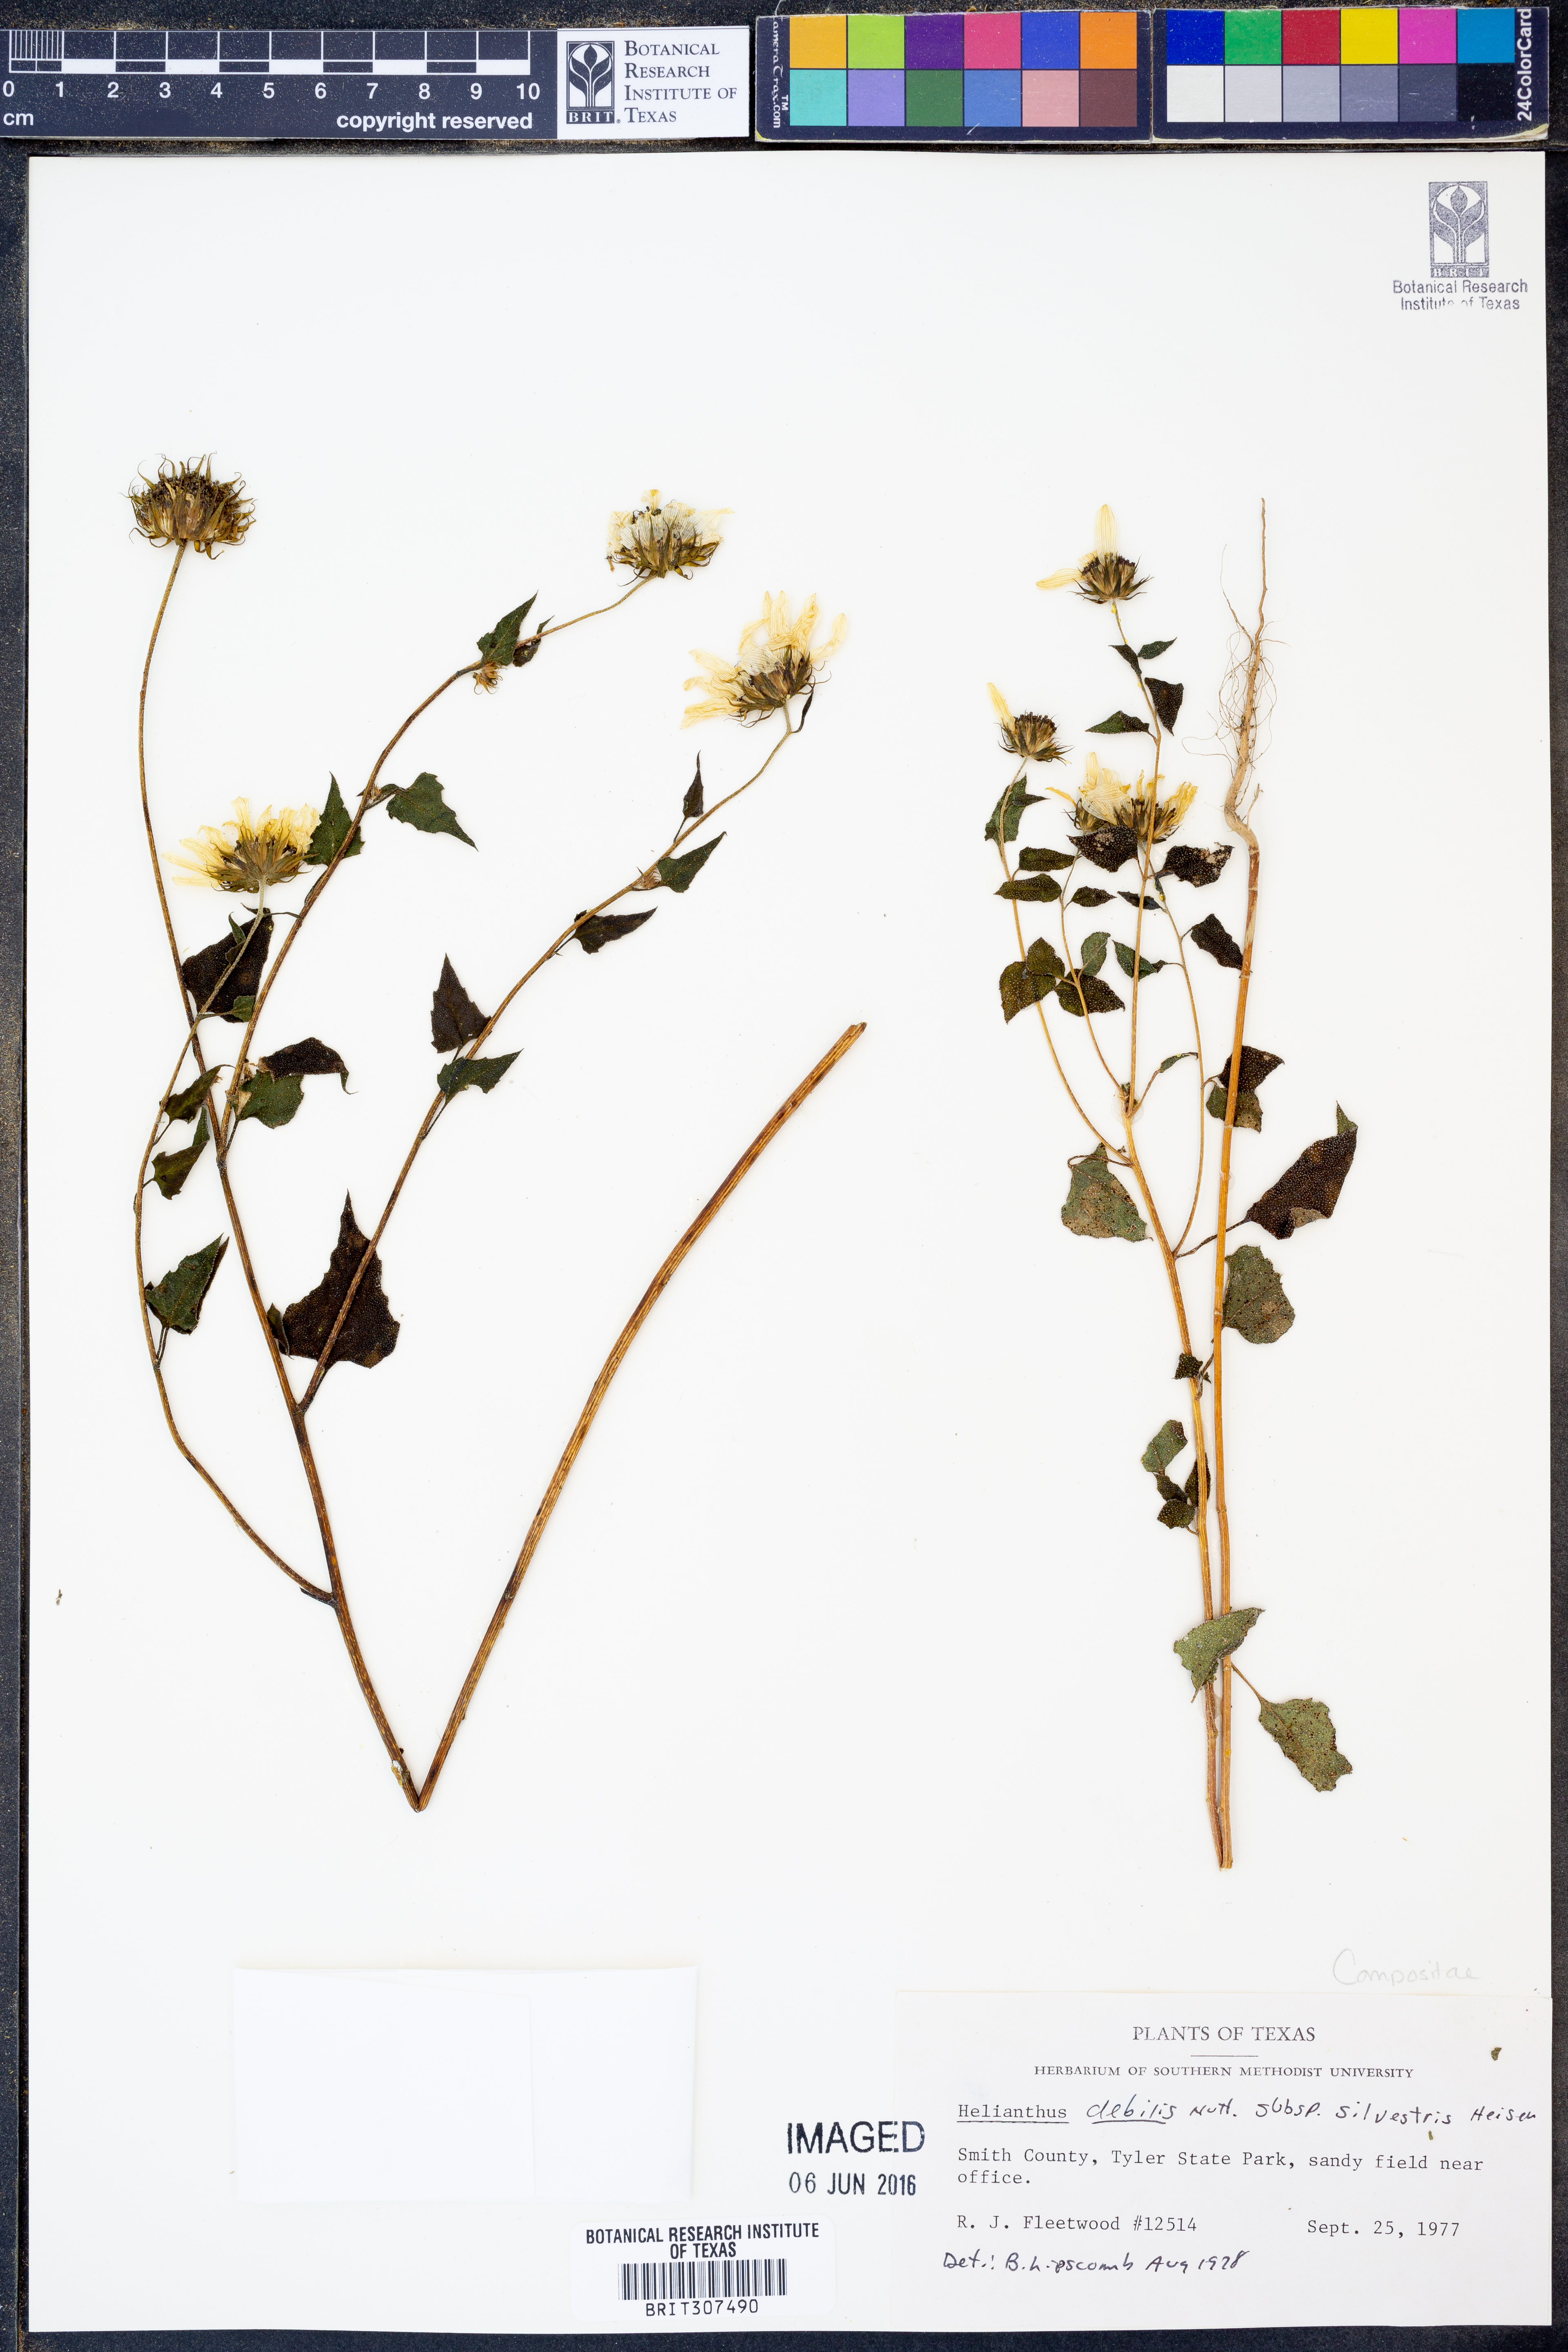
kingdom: Plantae
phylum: Tracheophyta
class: Magnoliopsida
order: Asterales
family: Asteraceae
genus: Helianthus
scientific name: Helianthus debilis
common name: Weak sunflower
